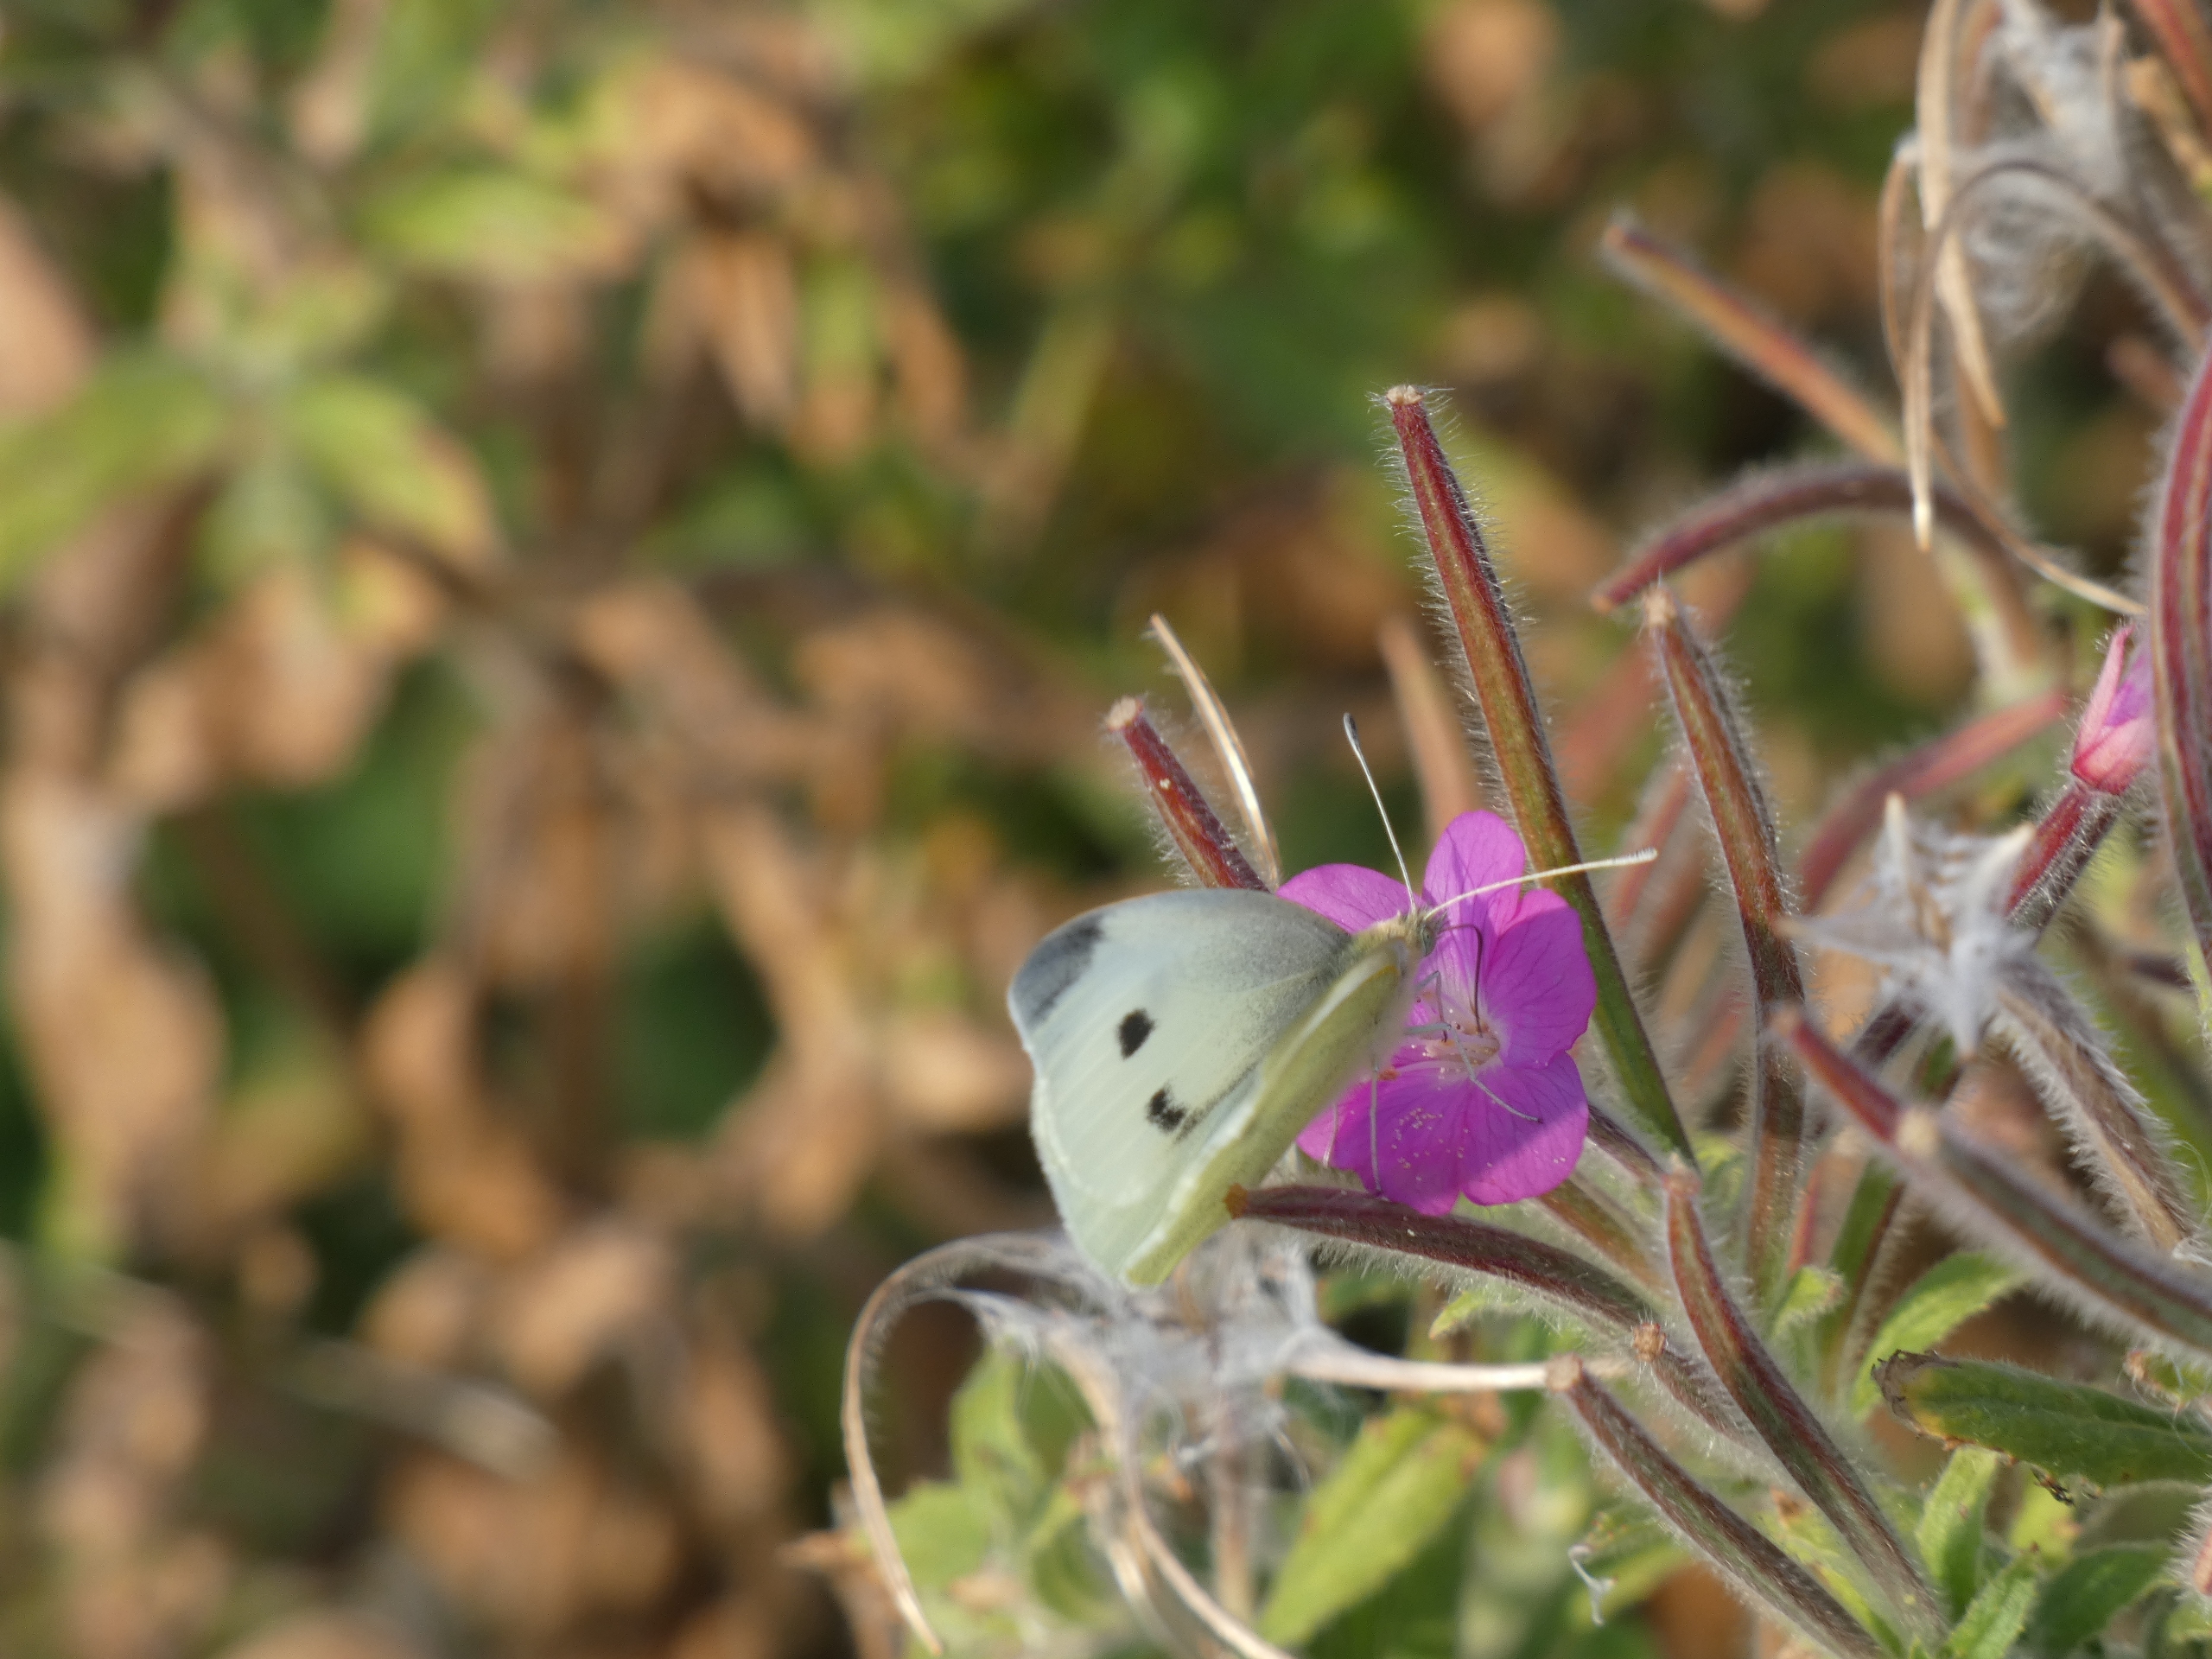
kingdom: Animalia
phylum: Arthropoda
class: Insecta
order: Lepidoptera
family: Pieridae
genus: Pieris
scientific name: Pieris rapae
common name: Lille kålsommerfugl
